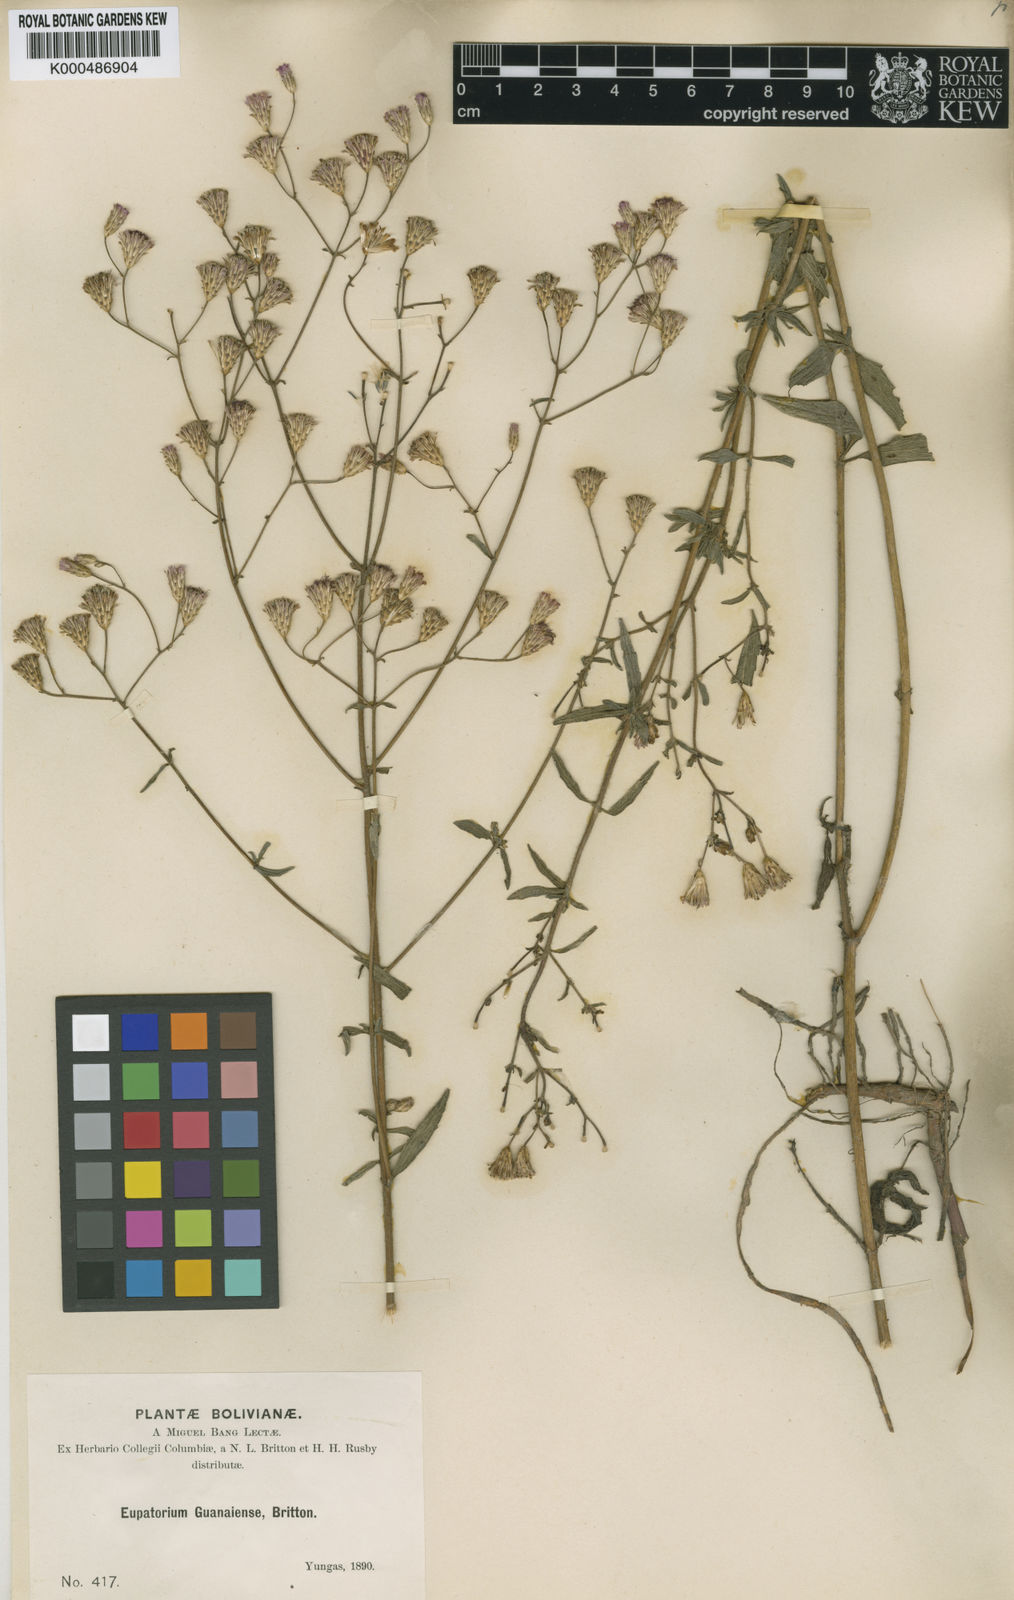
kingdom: Plantae
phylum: Tracheophyta
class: Magnoliopsida
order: Asterales
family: Asteraceae
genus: Chromolaena
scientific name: Chromolaena ivifolia
